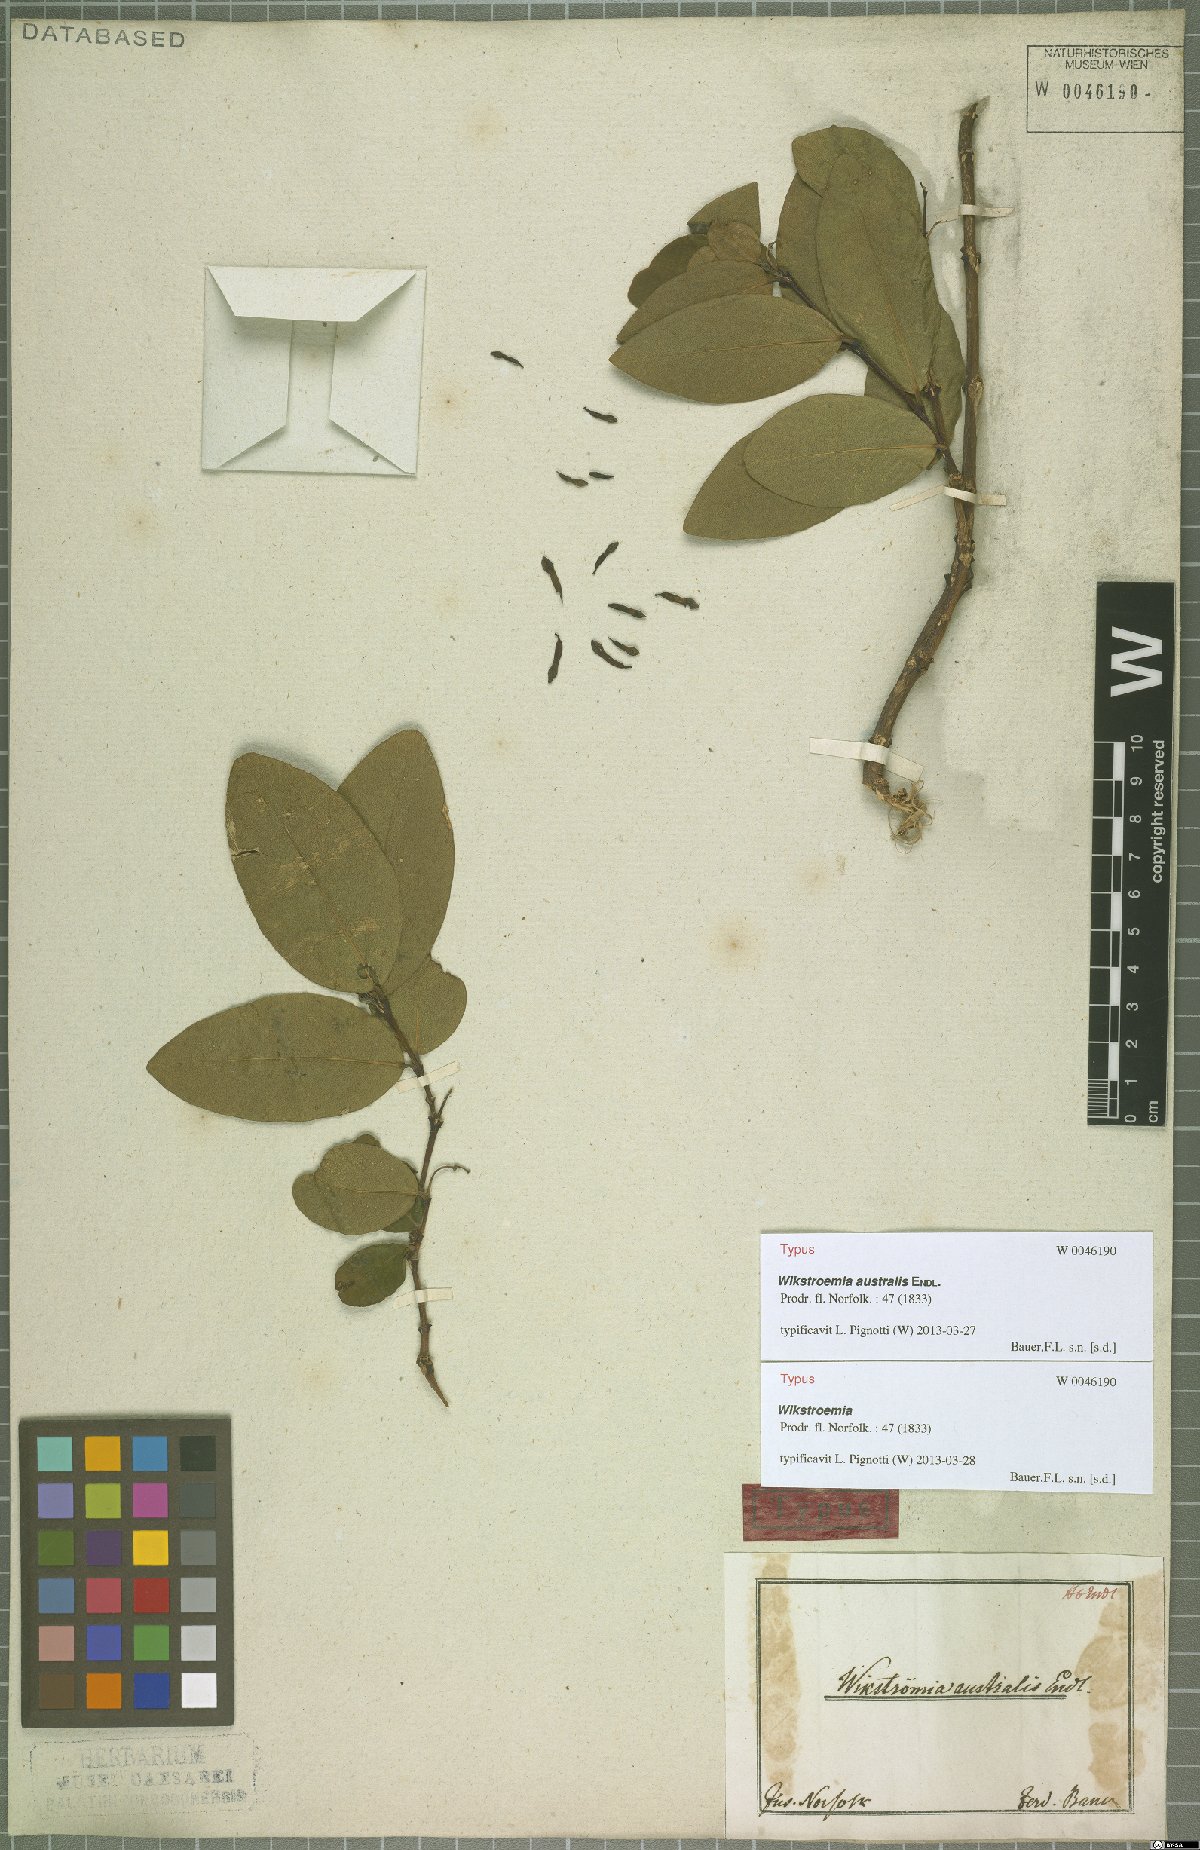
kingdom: Plantae
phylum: Tracheophyta
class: Magnoliopsida
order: Malvales
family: Thymelaeaceae
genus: Wikstroemia
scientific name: Wikstroemia australis
